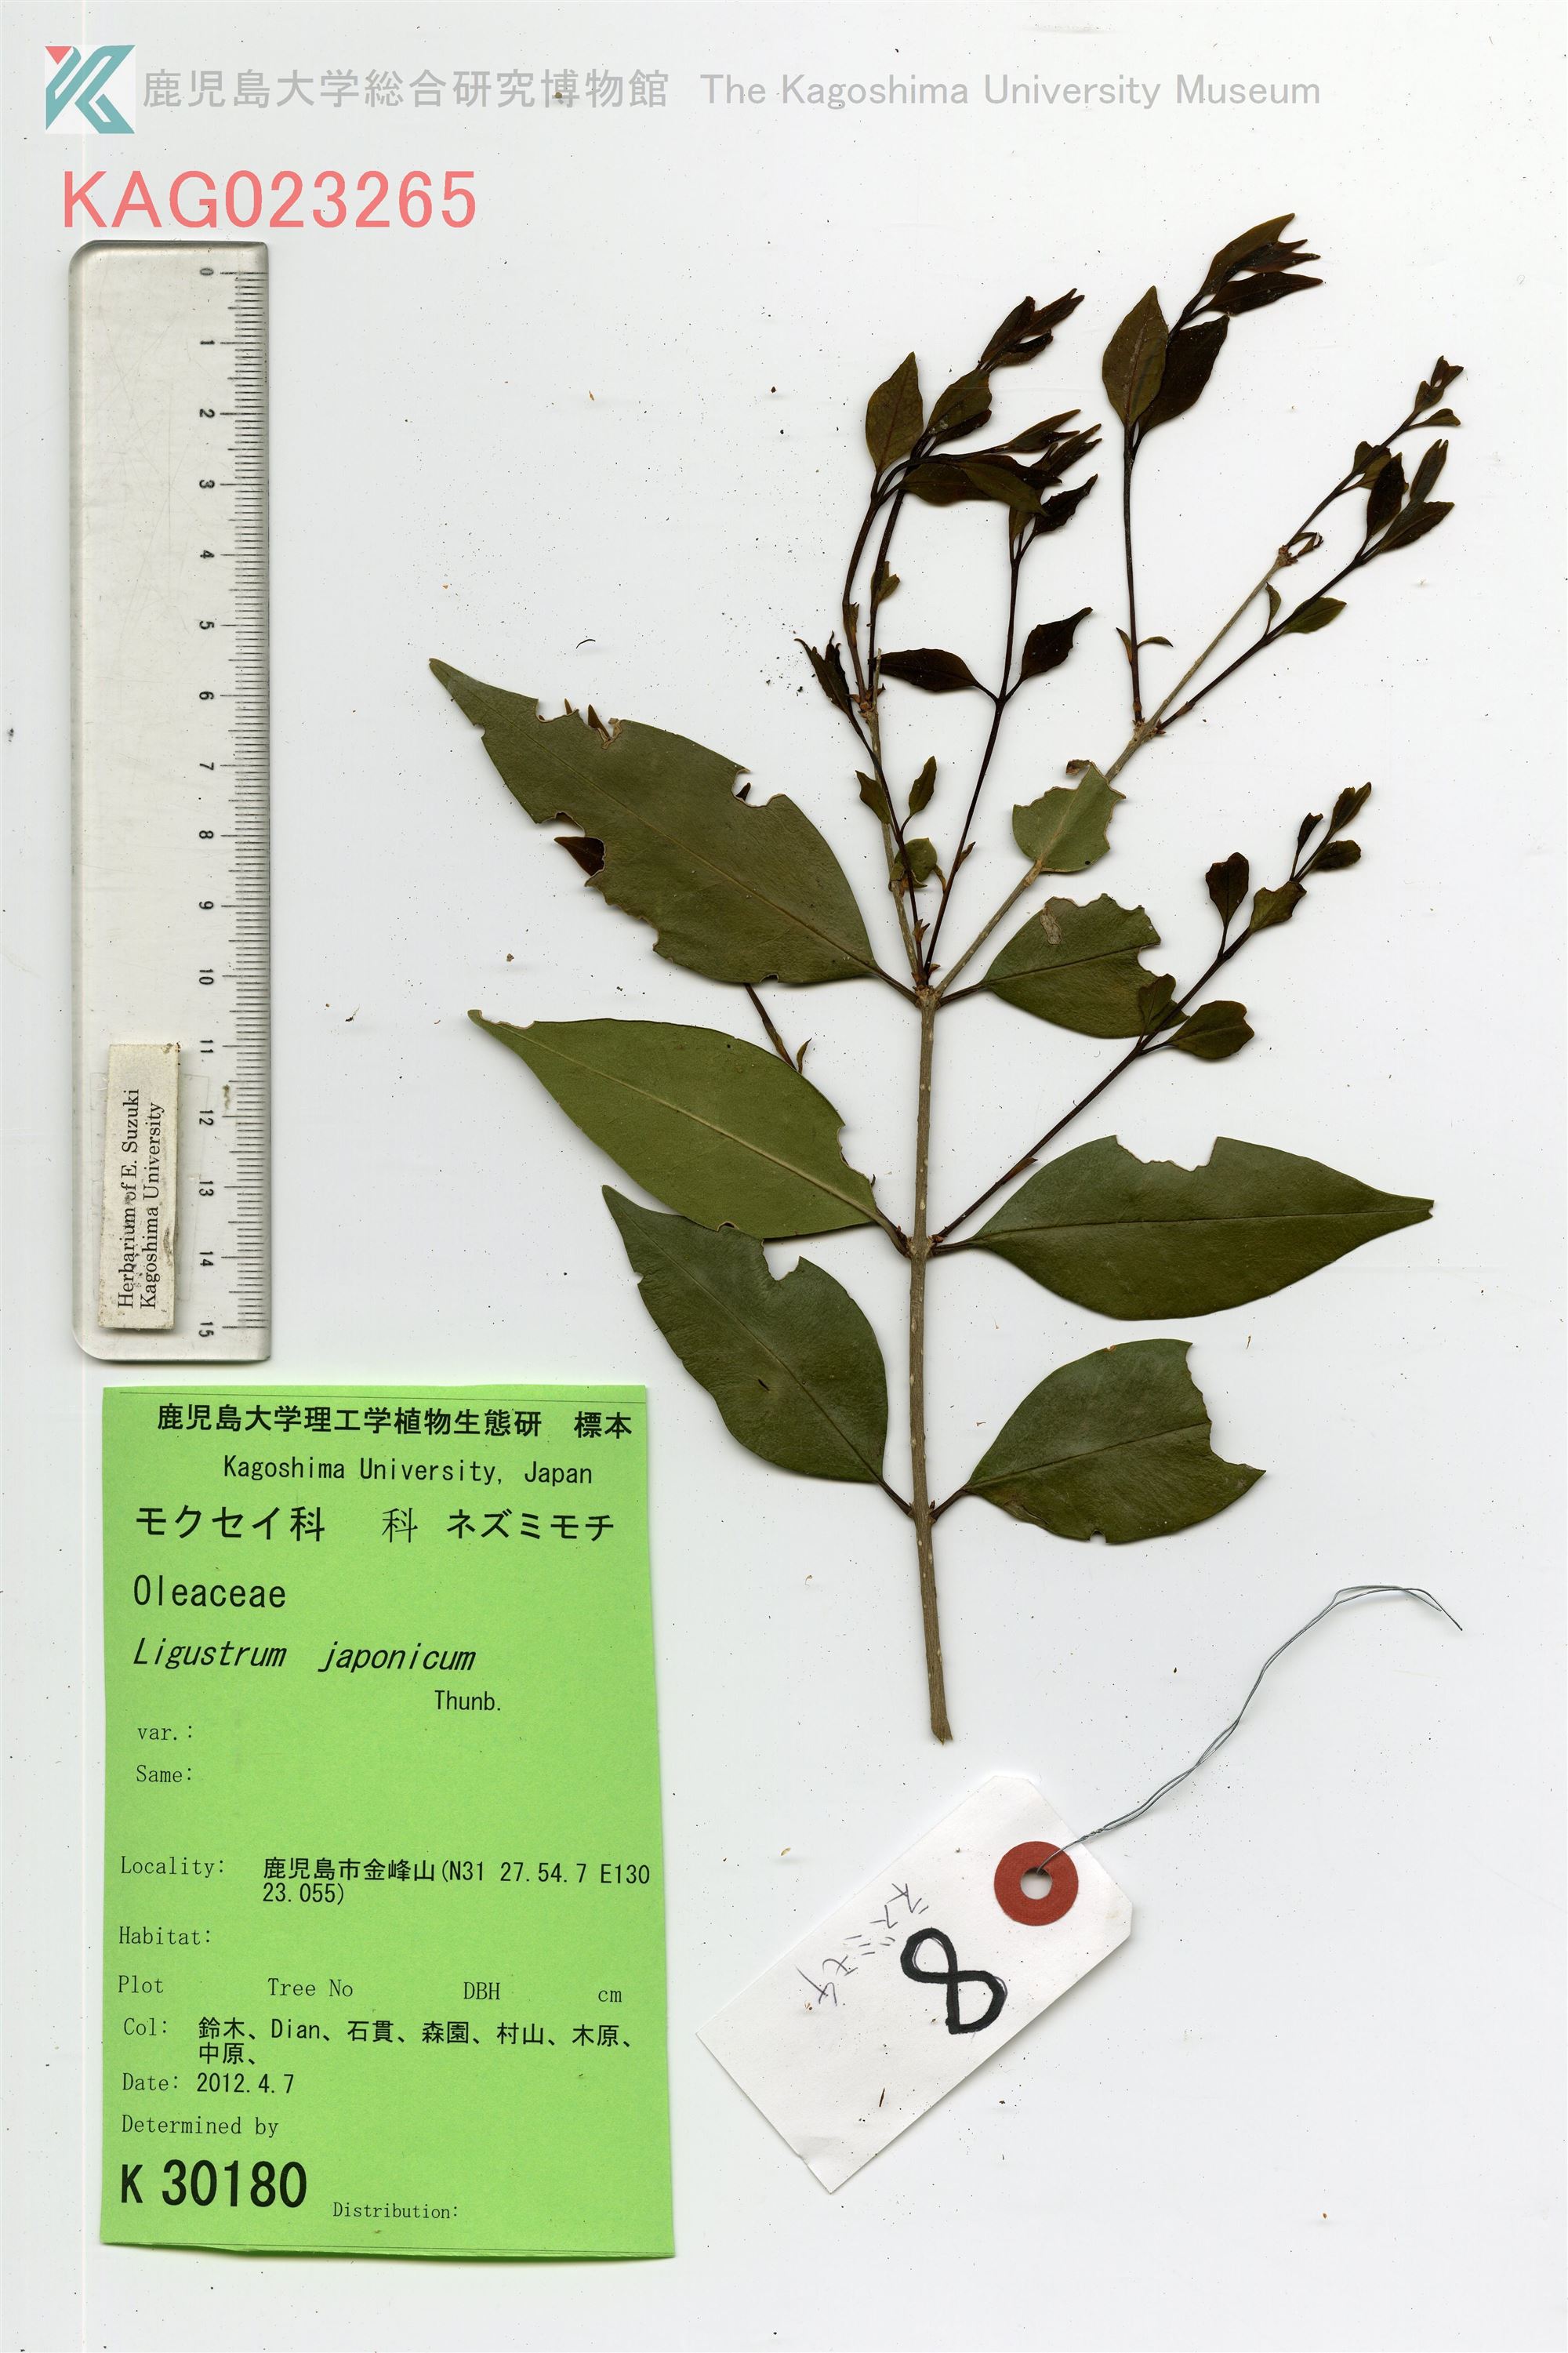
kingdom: Plantae
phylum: Tracheophyta
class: Magnoliopsida
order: Lamiales
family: Oleaceae
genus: Ligustrum
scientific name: Ligustrum japonicum
